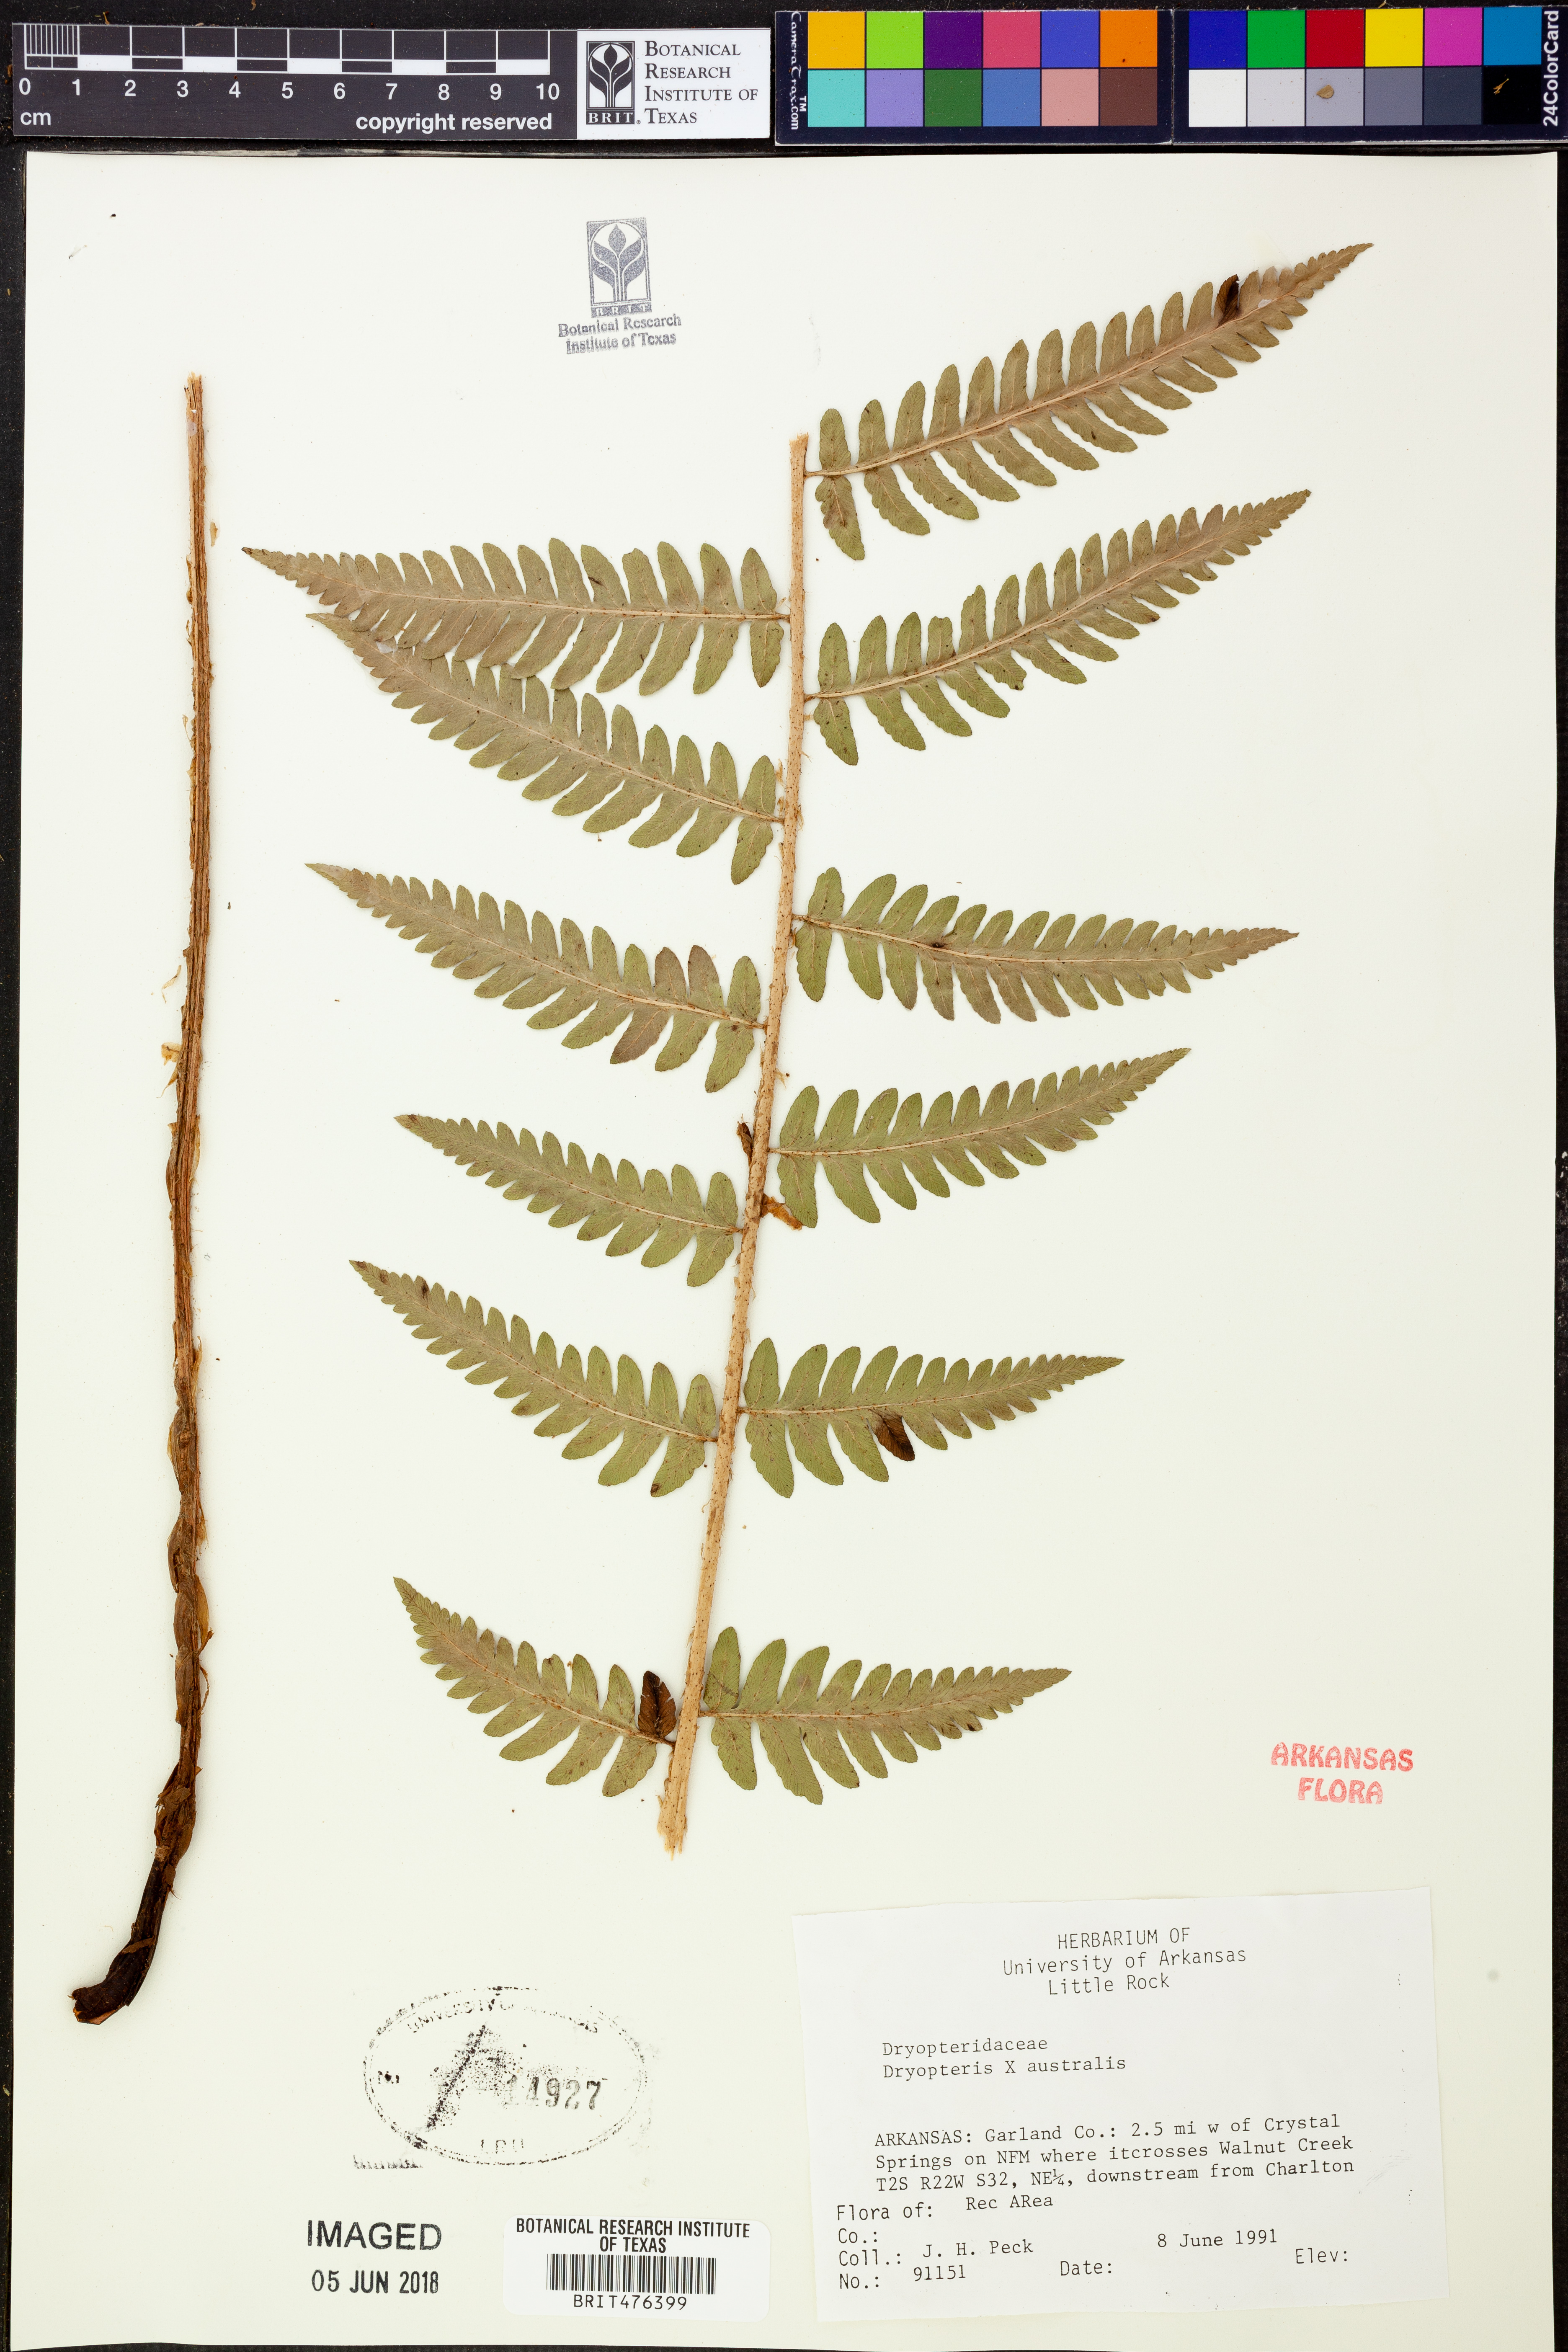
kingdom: Plantae
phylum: Tracheophyta
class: Polypodiopsida
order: Polypodiales
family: Dryopteridaceae
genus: Dryopteris
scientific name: Dryopteris
